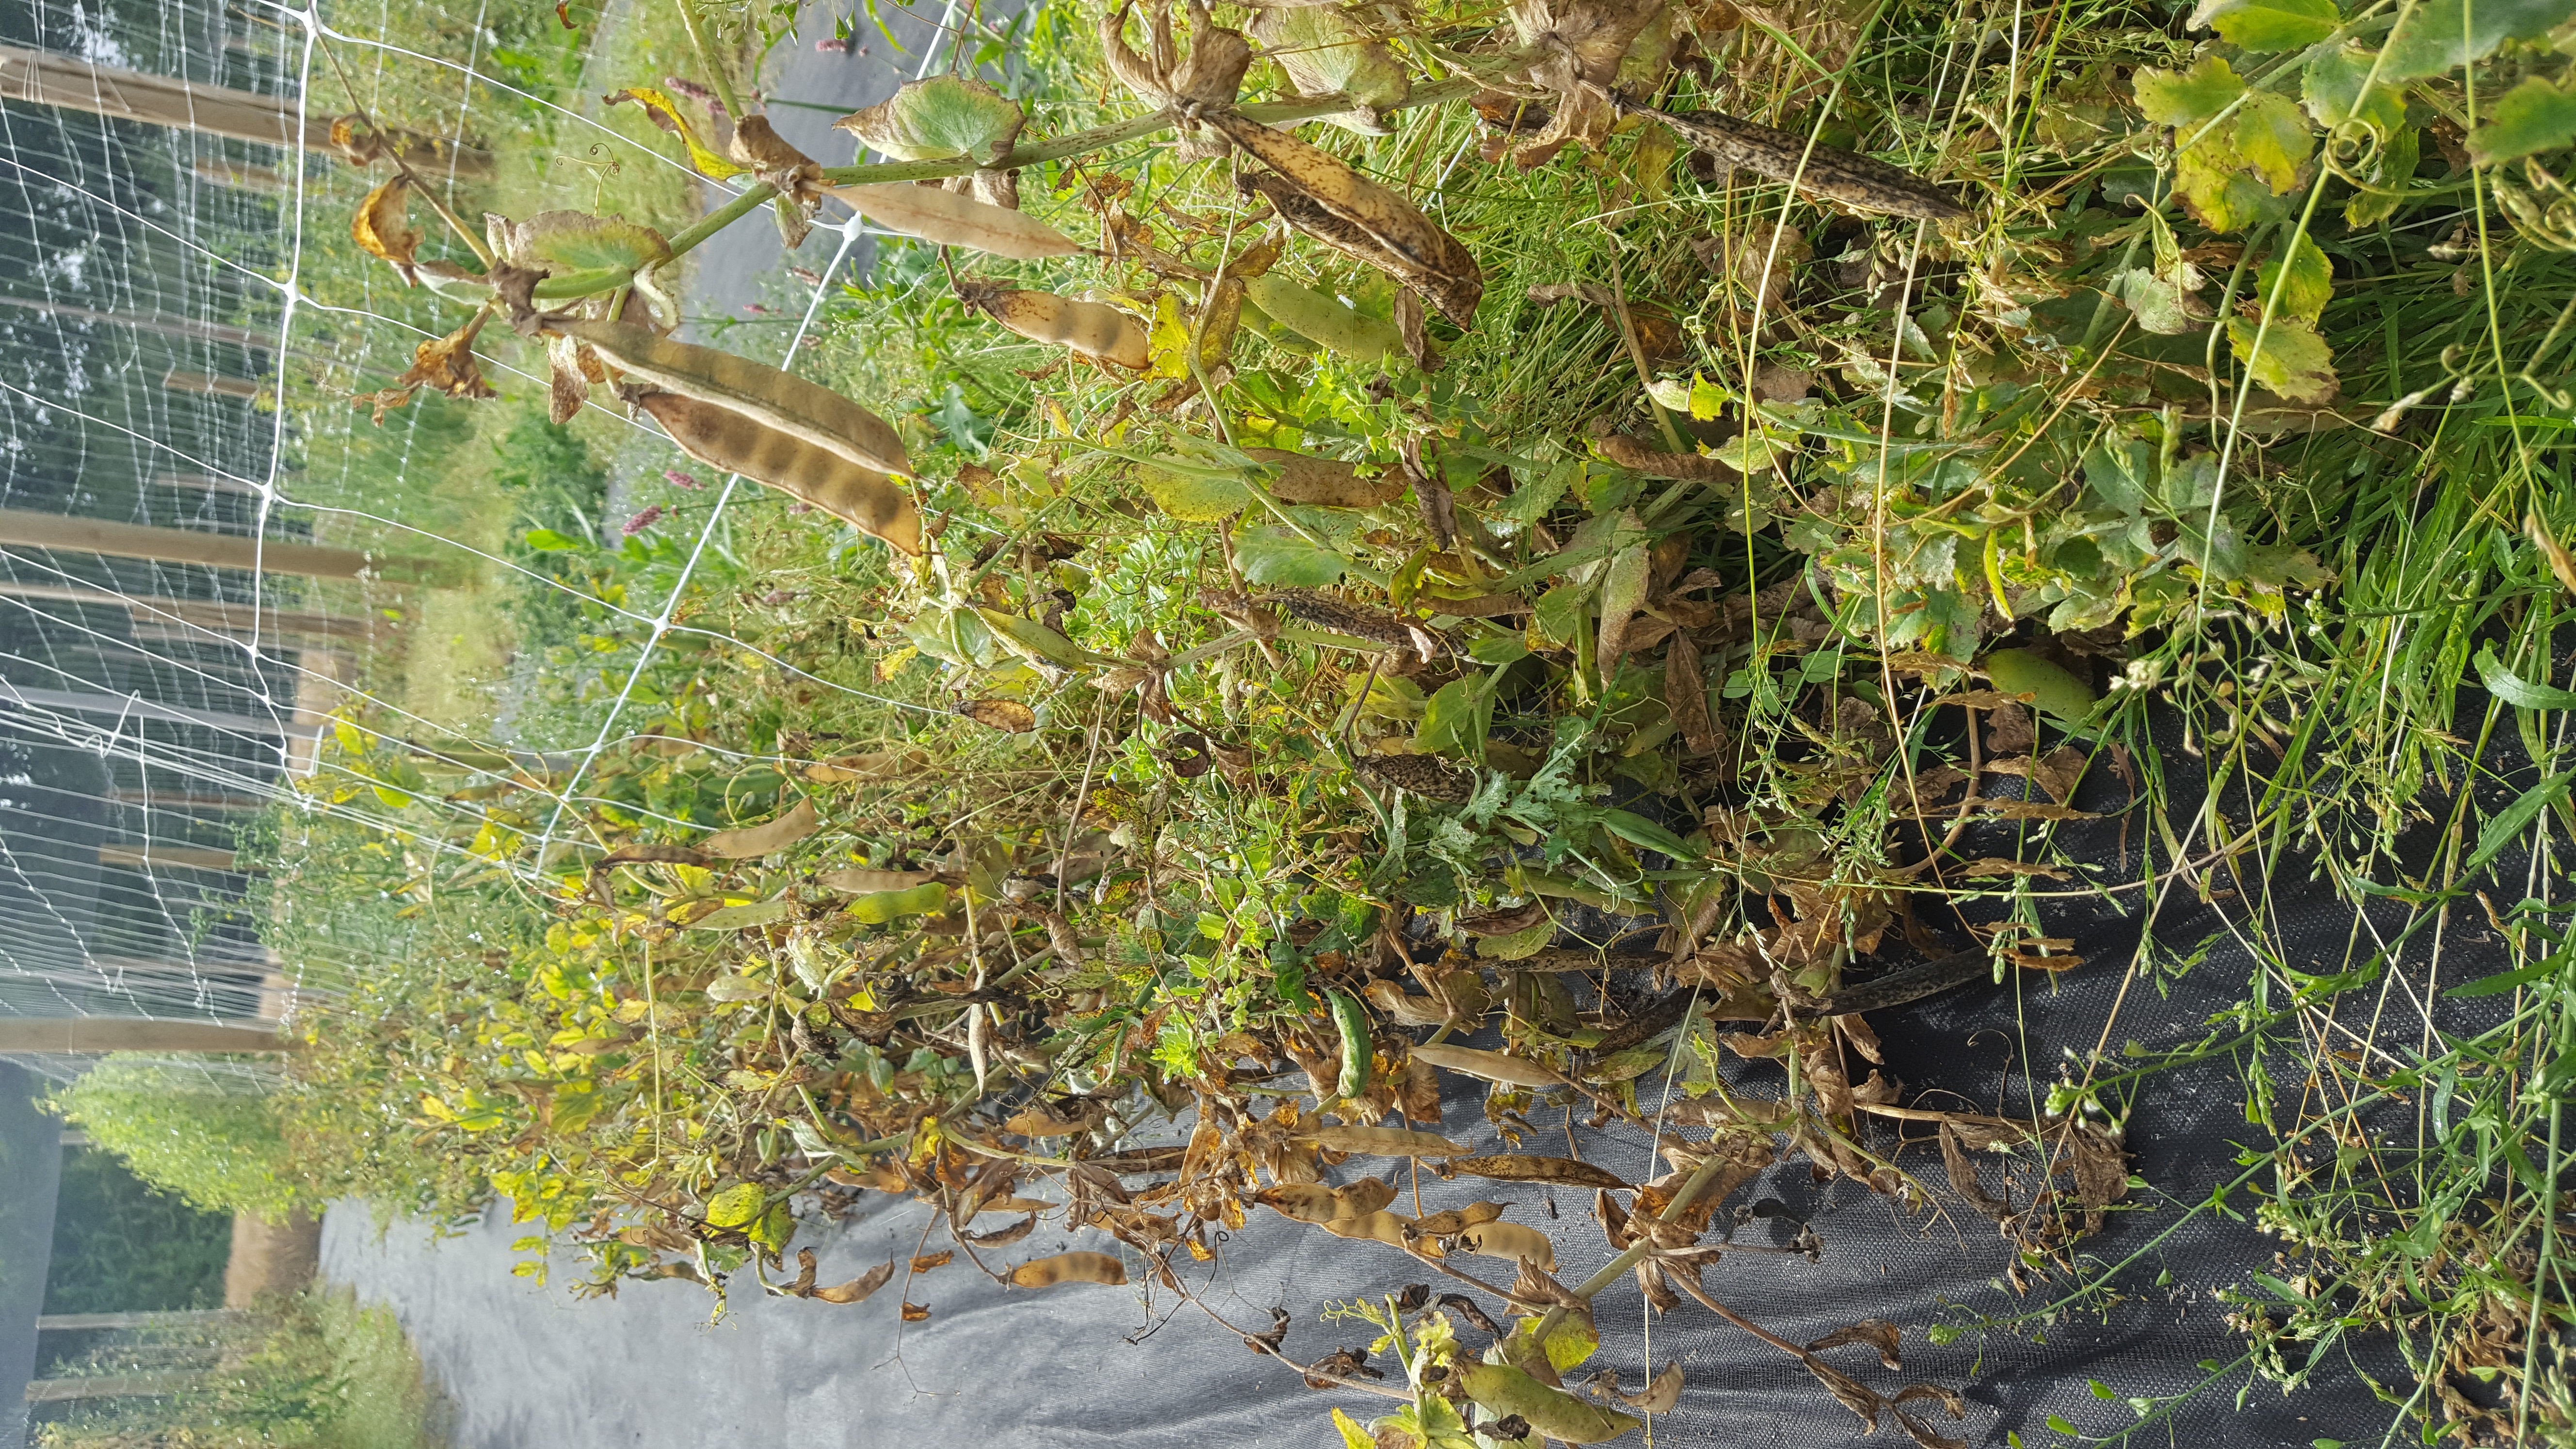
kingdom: Plantae
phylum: Tracheophyta
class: Magnoliopsida
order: Fabales
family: Fabaceae
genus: Lathyrus
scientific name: Lathyrus oleraceus
